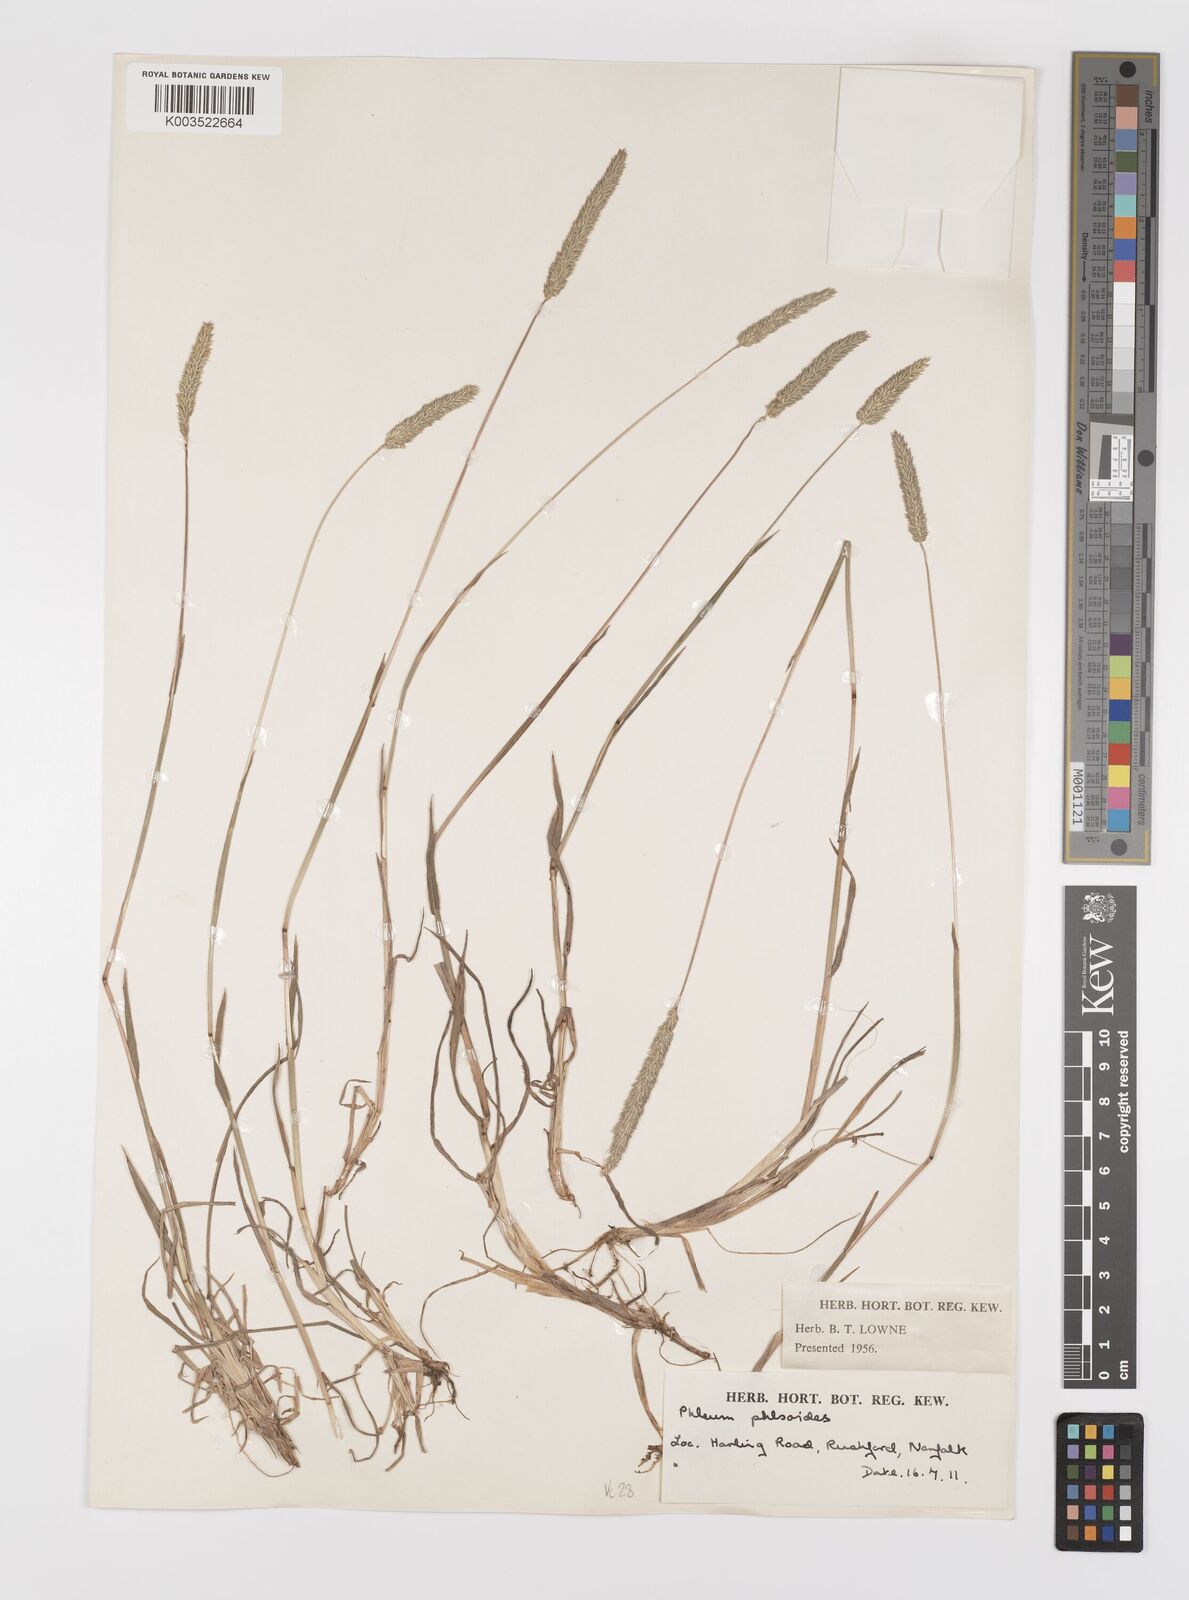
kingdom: Plantae
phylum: Tracheophyta
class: Liliopsida
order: Poales
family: Poaceae
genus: Phleum
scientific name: Phleum phleoides
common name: Purple-stem cat's-tail
